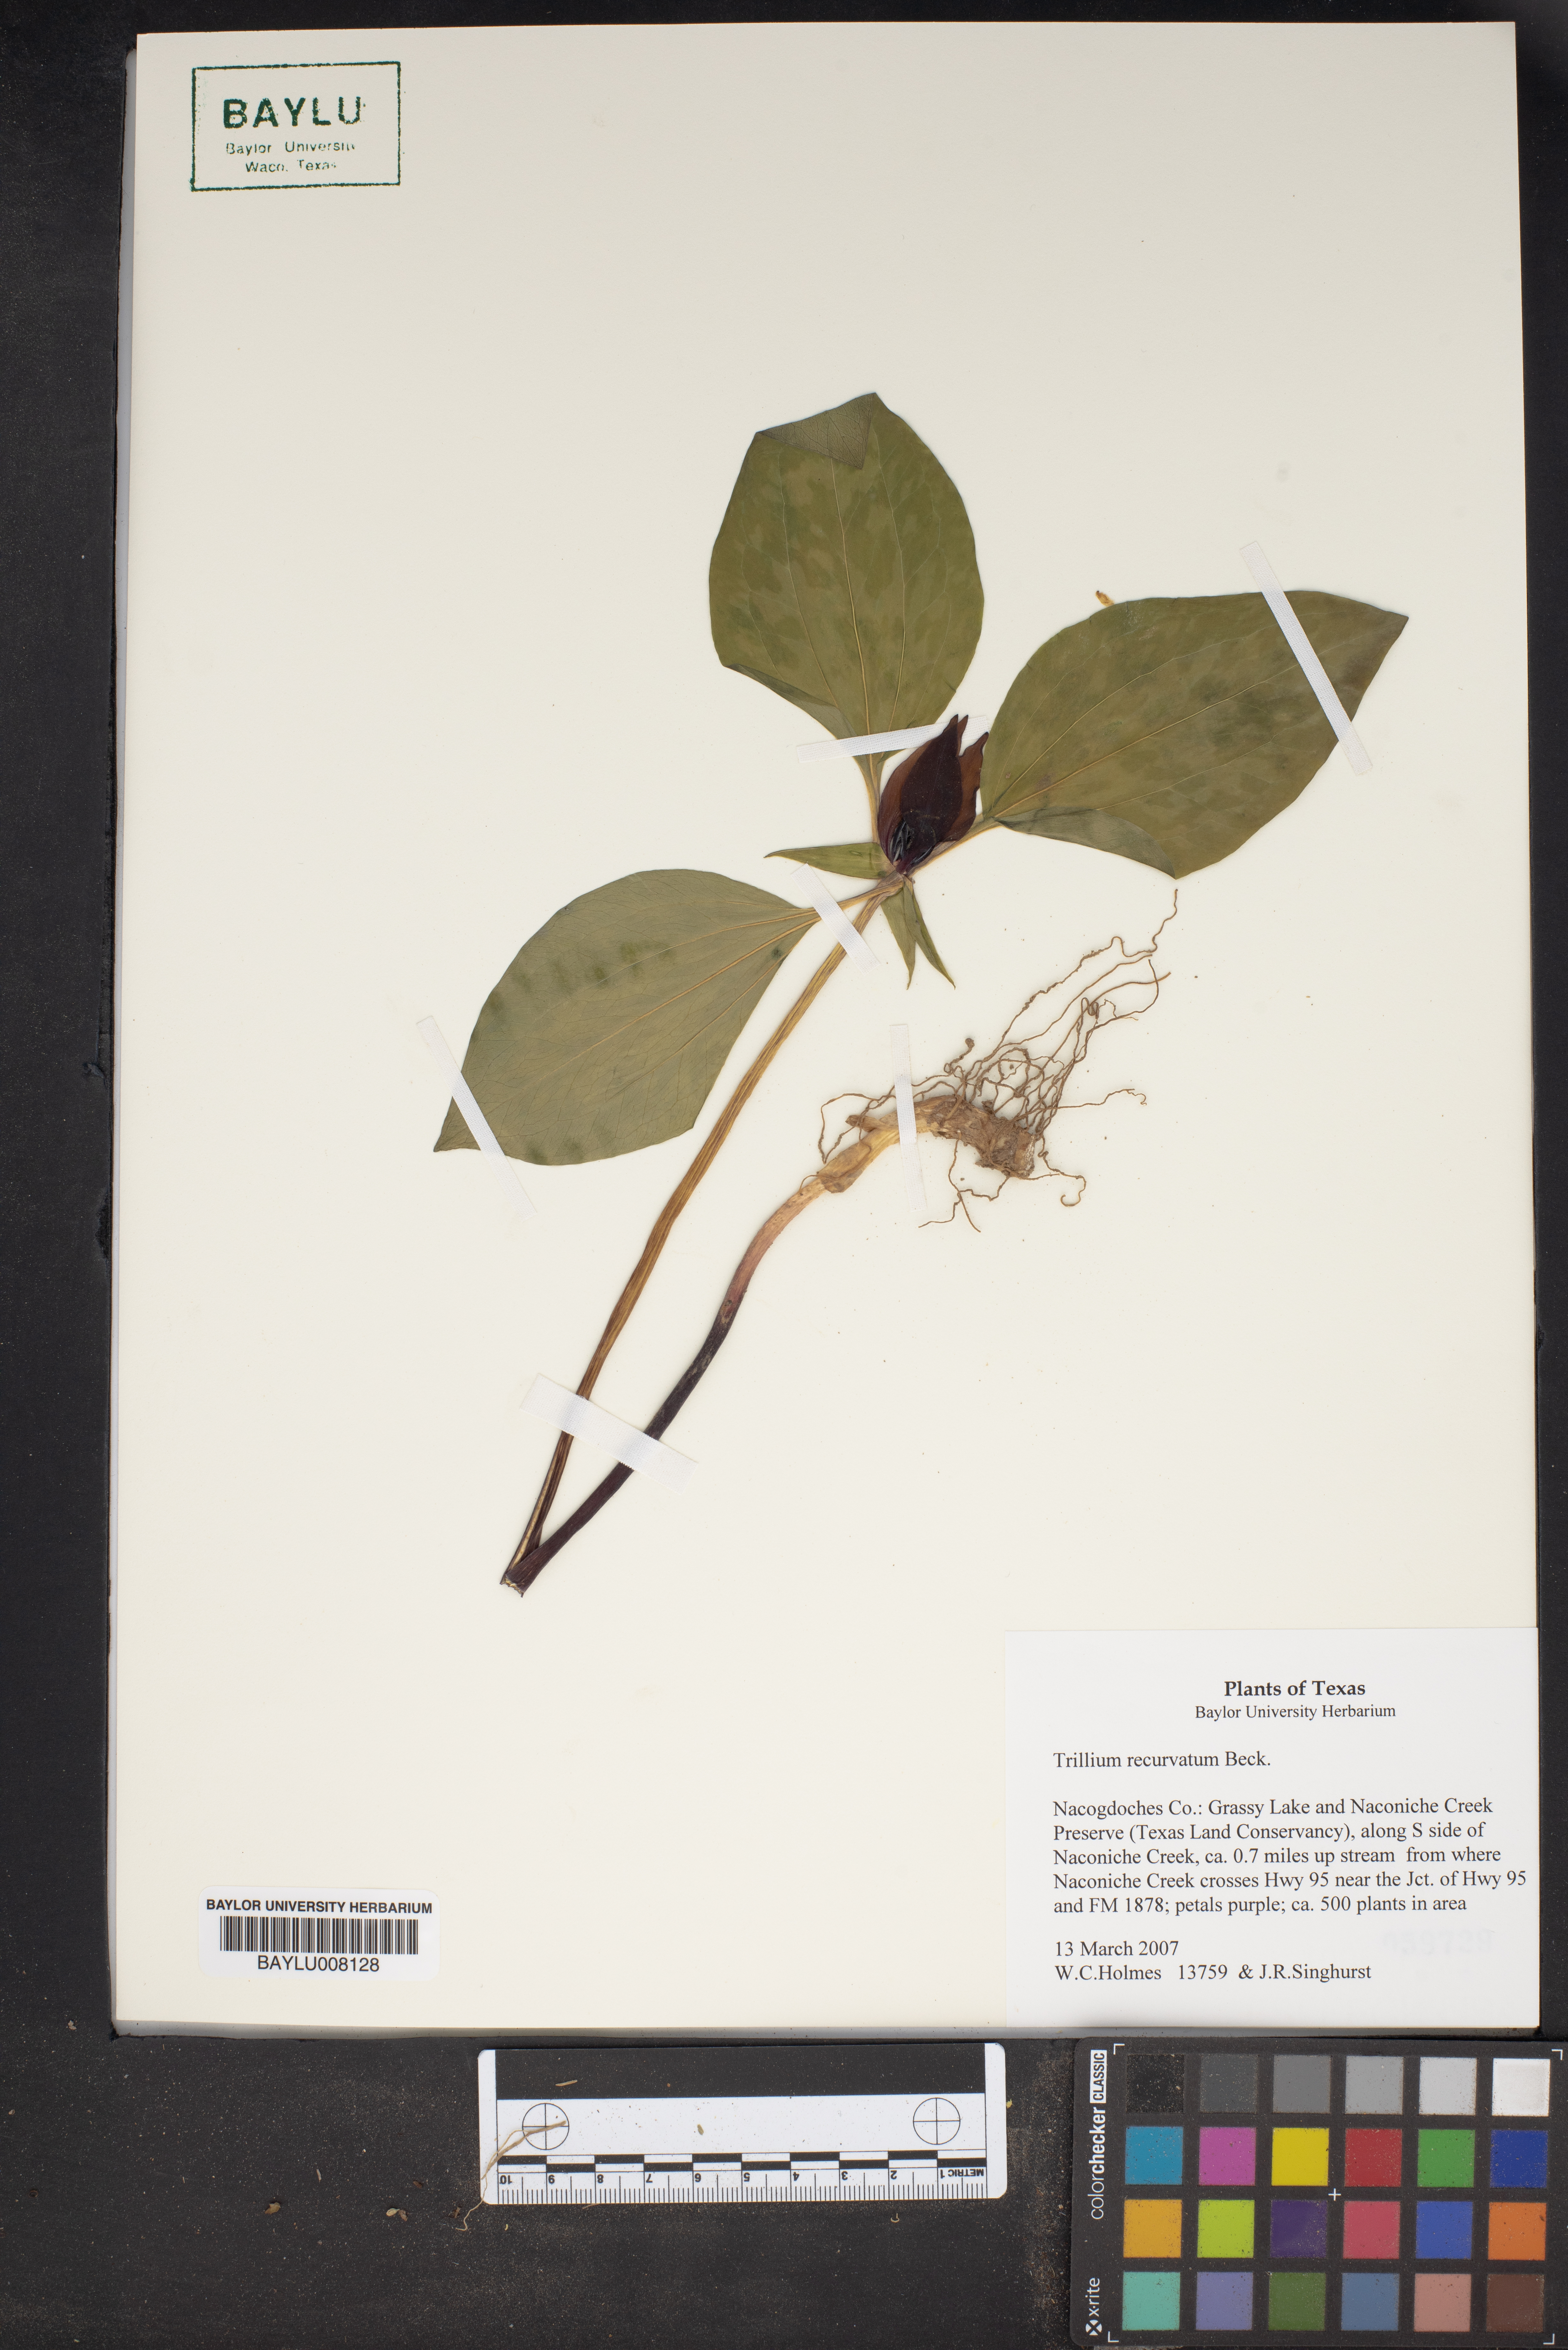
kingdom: Plantae
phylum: Tracheophyta
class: Liliopsida
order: Liliales
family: Melanthiaceae
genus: Trillium
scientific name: Trillium recurvatum
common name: Bloody butcher
